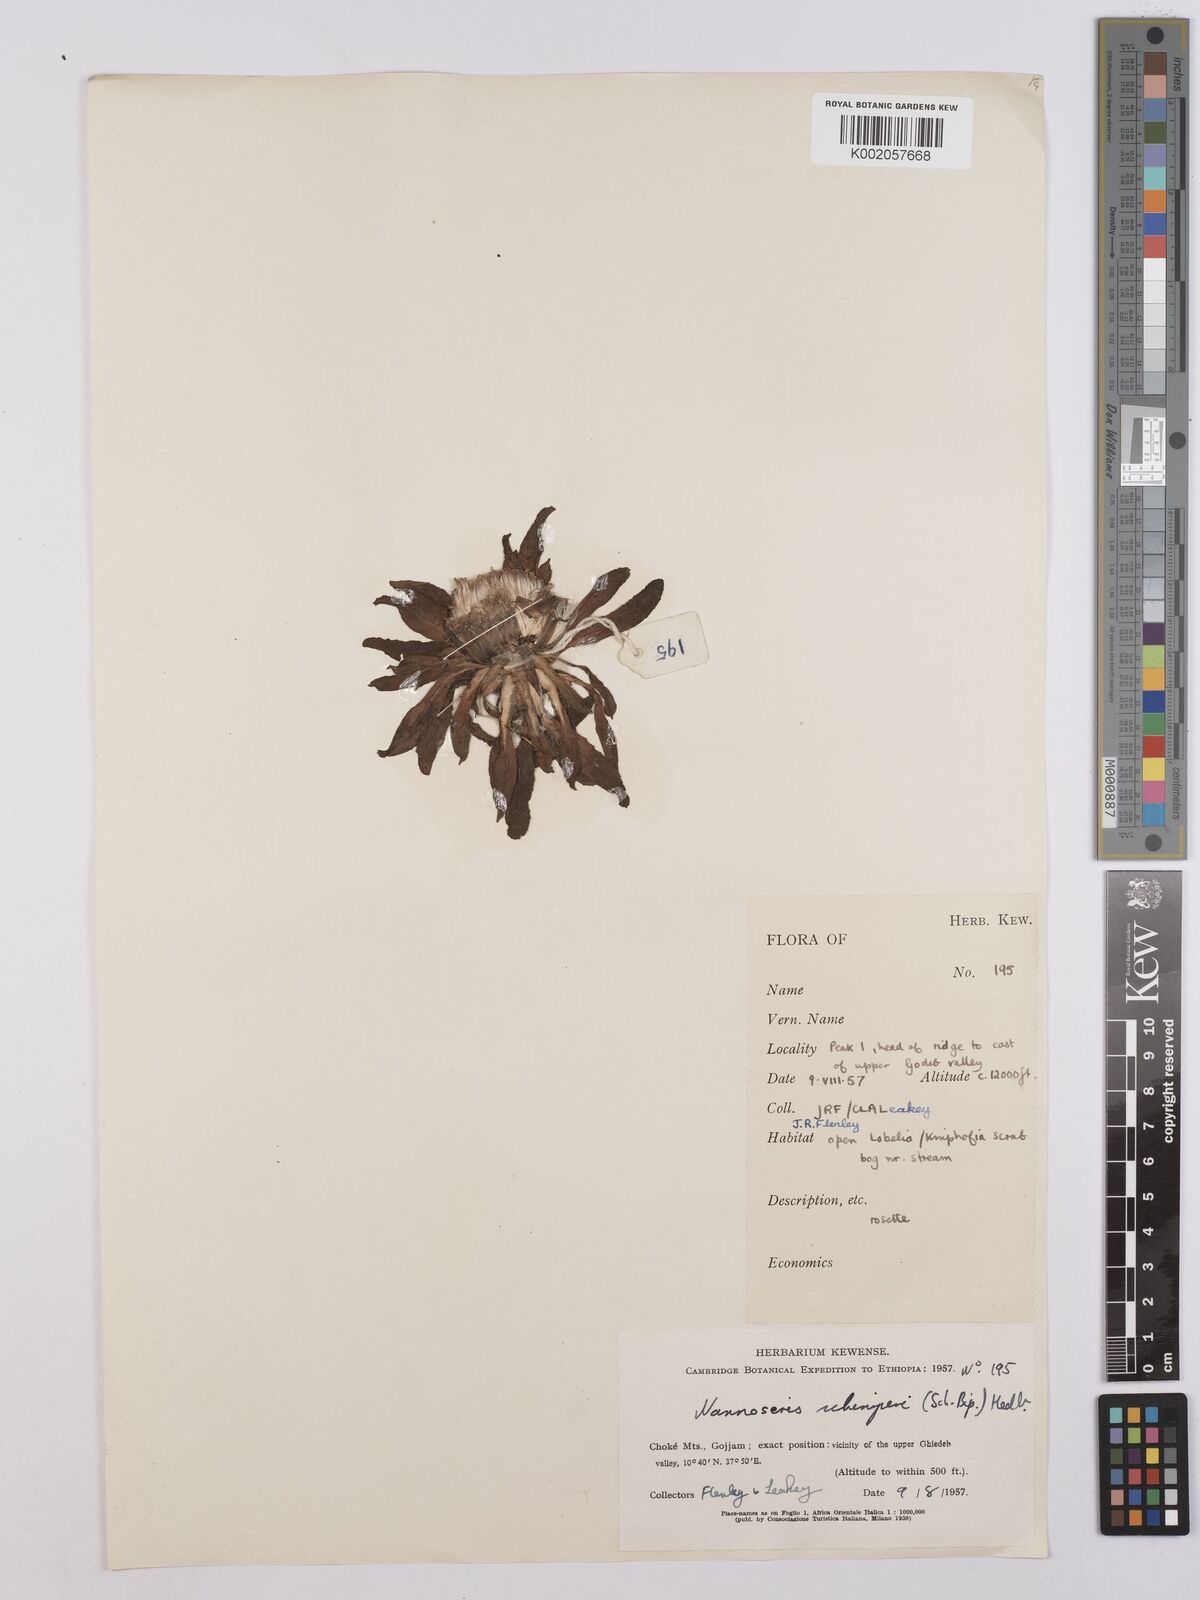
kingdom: Plantae
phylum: Tracheophyta
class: Magnoliopsida
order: Asterales
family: Asteraceae
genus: Crepis
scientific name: Crepis foetida
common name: Stinking hawk's-beard
